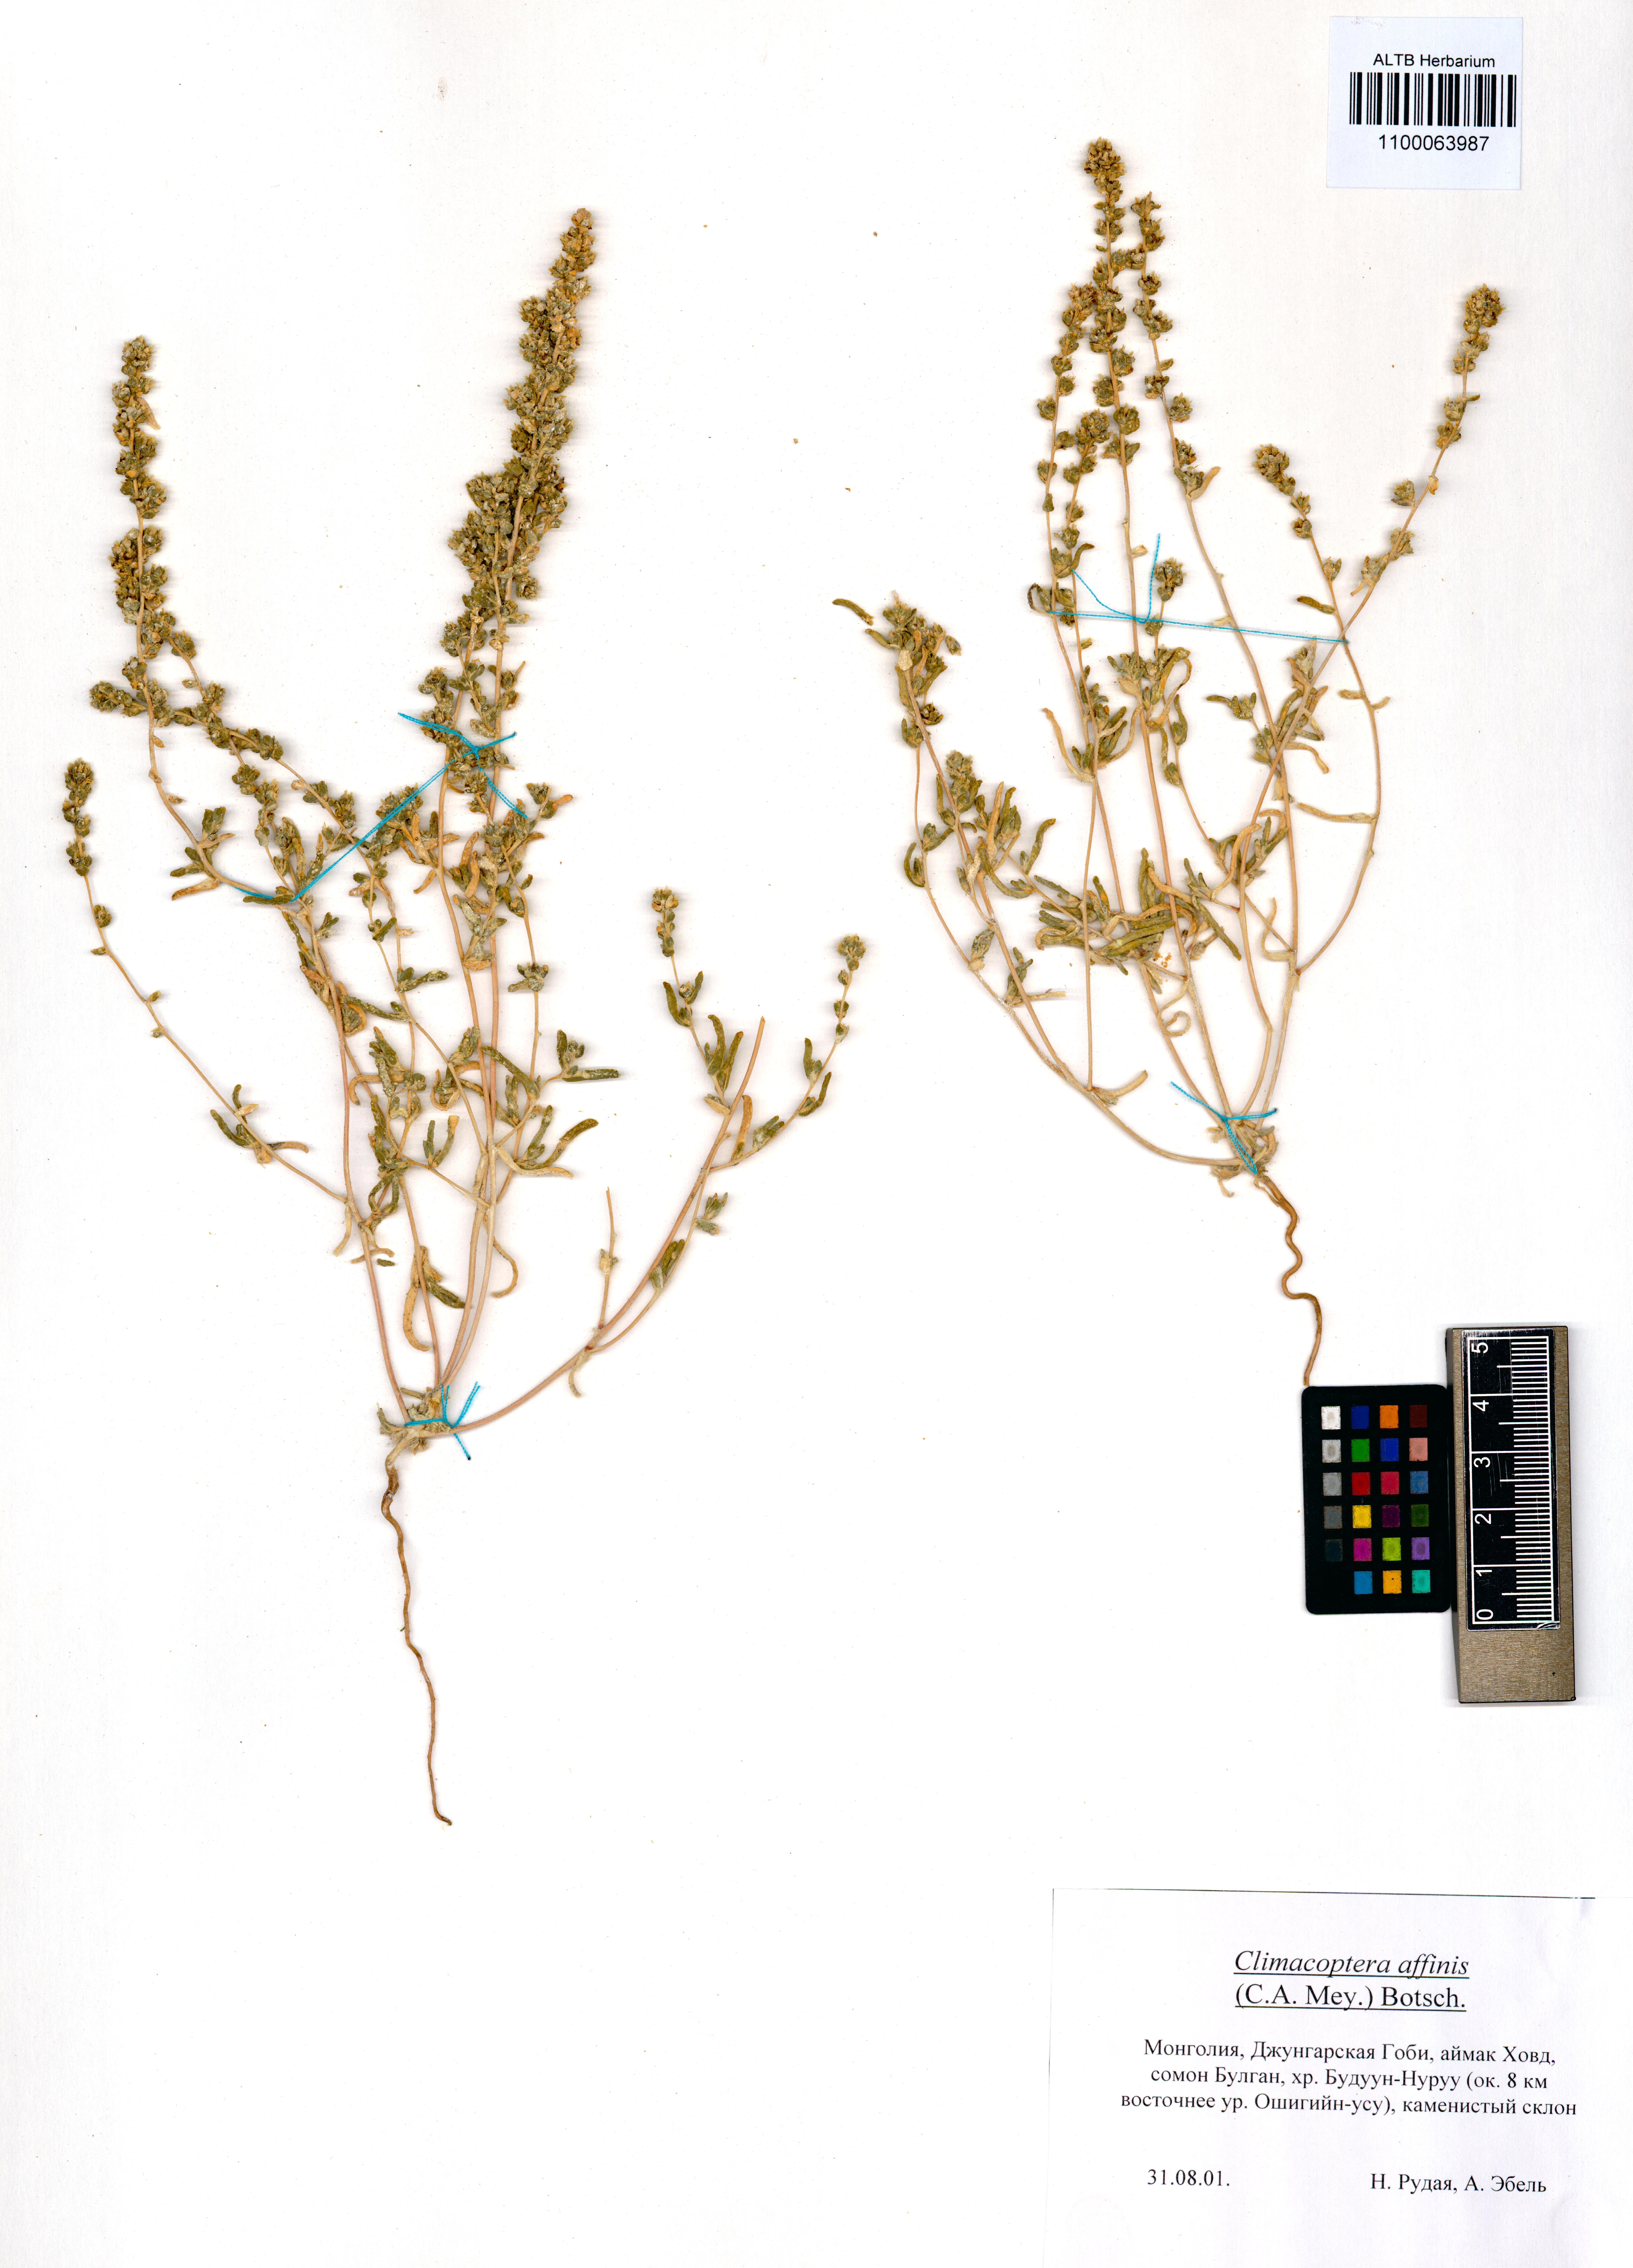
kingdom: Plantae
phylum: Tracheophyta
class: Magnoliopsida
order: Caryophyllales
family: Amaranthaceae
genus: Pyankovia
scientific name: Pyankovia affinis
